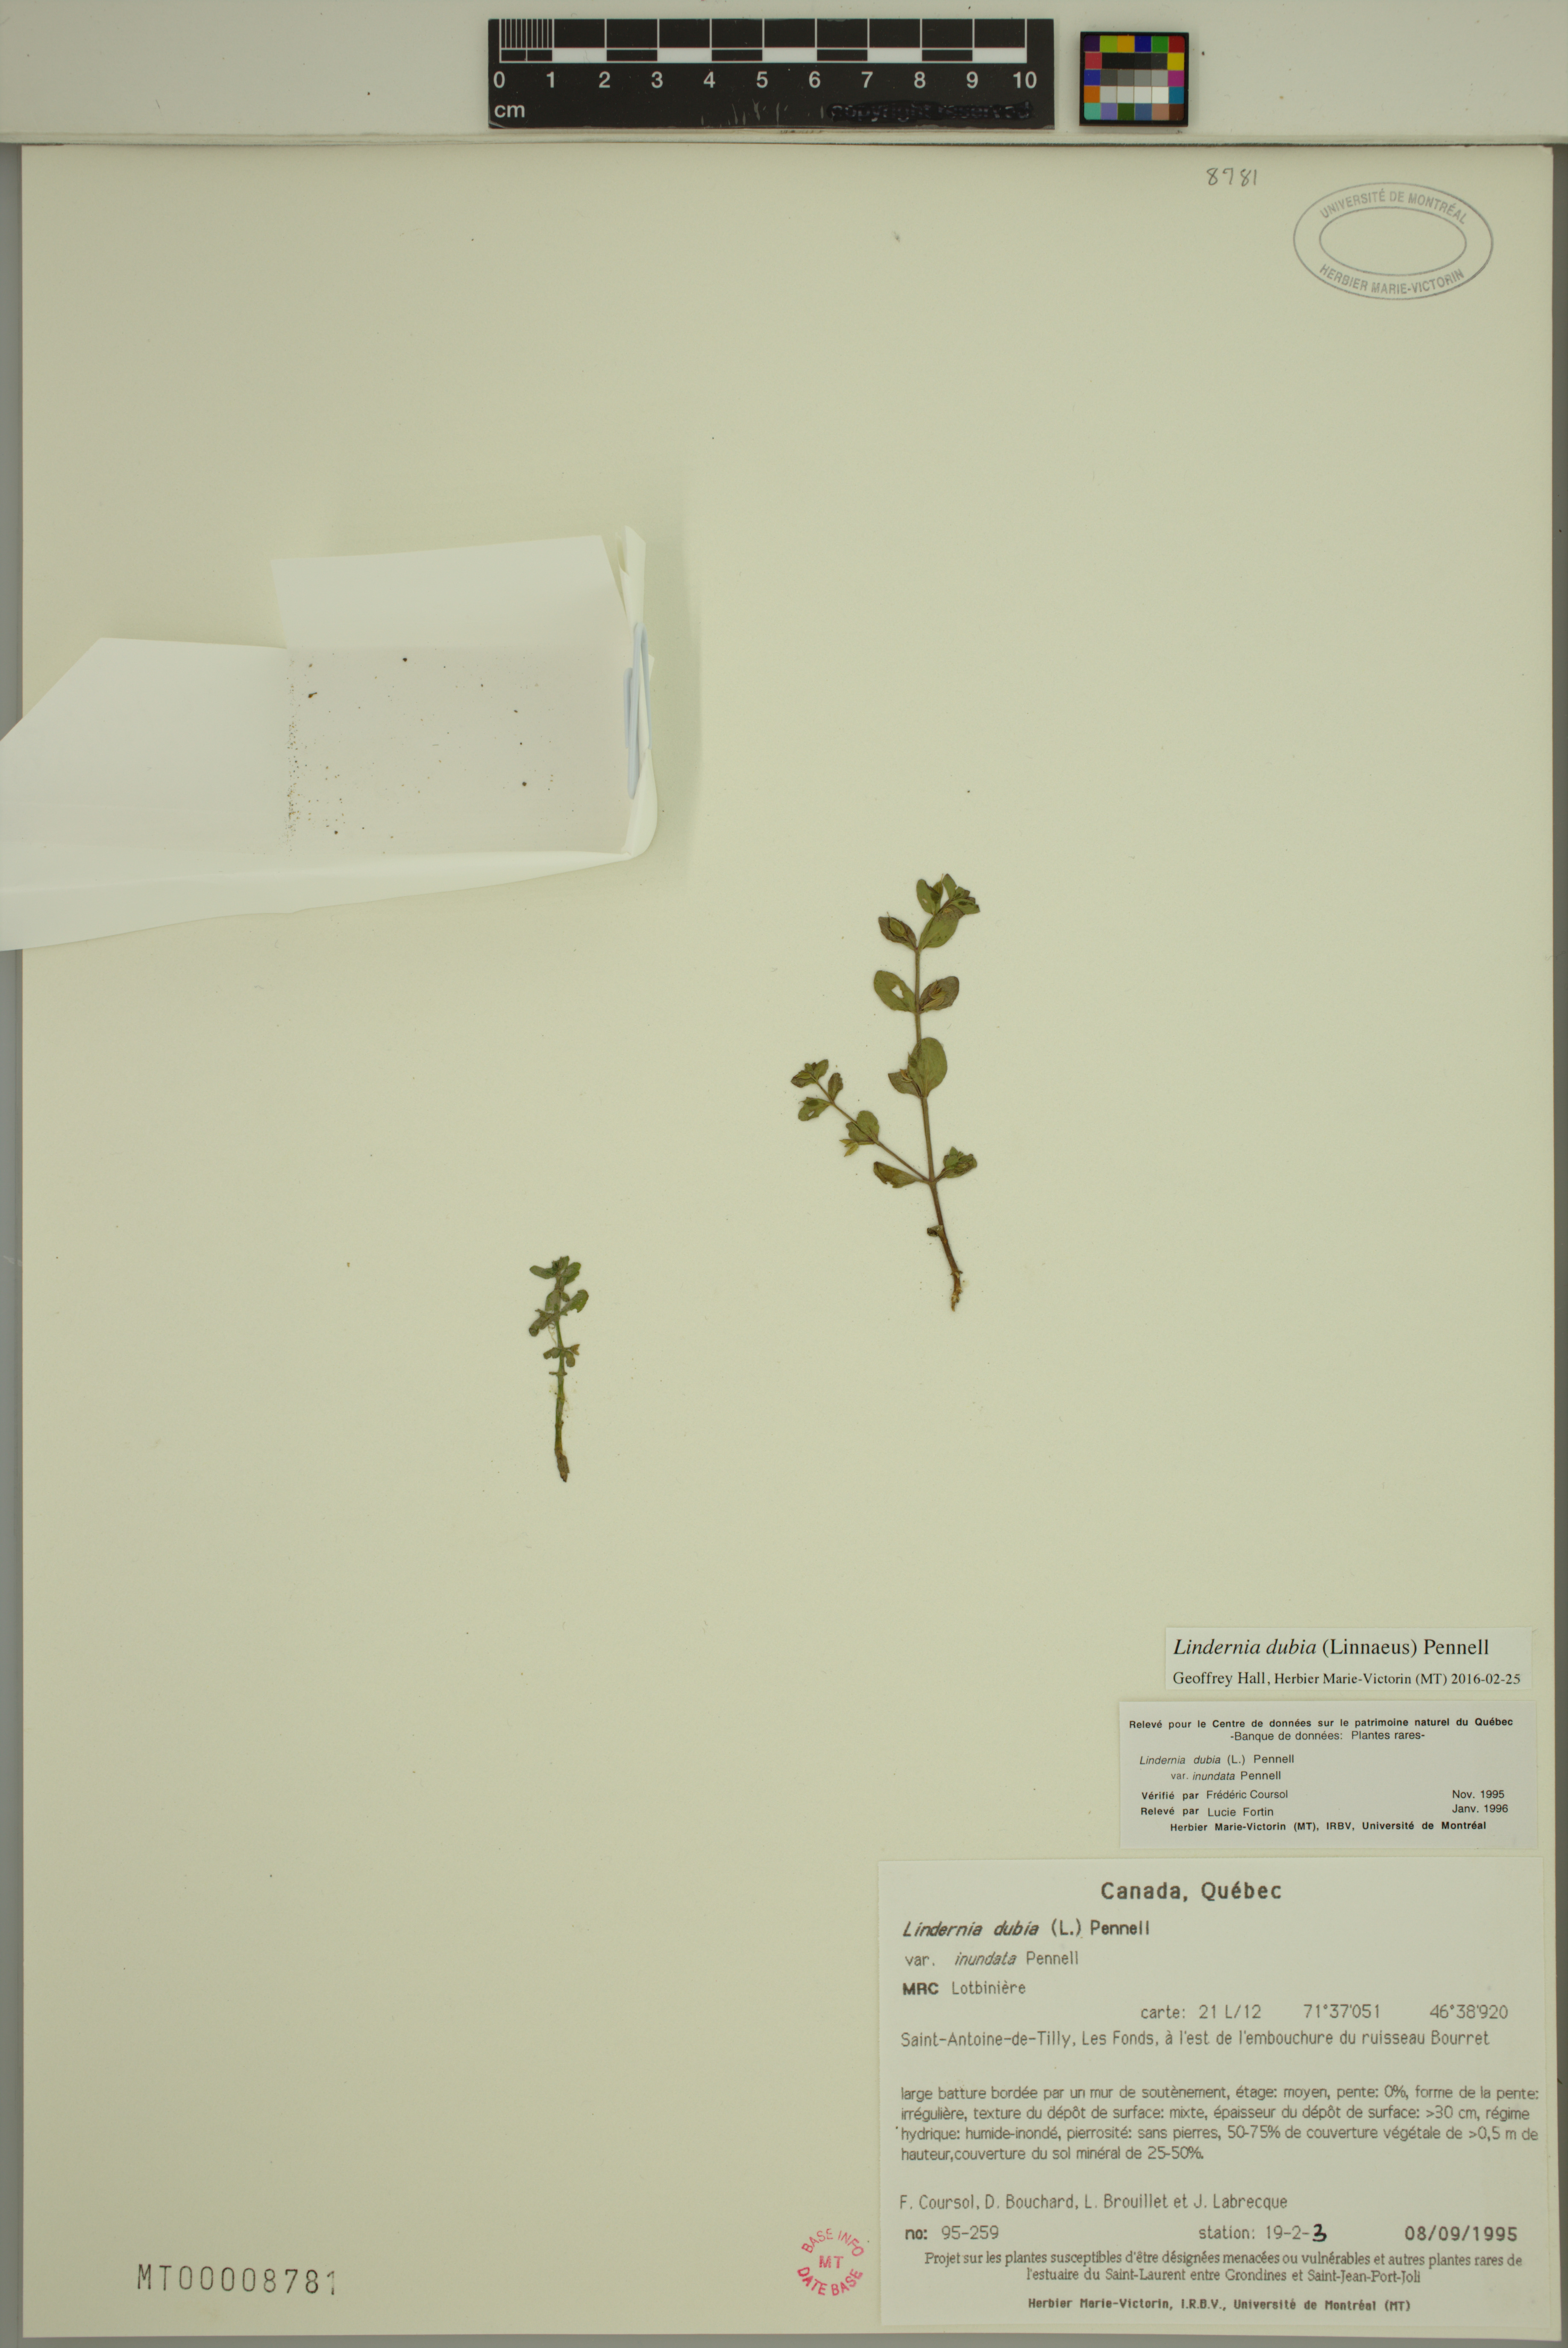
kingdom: Plantae
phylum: Tracheophyta
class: Magnoliopsida
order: Lamiales
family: Linderniaceae
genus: Lindernia
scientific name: Lindernia dubia
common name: Annual false pimpernel
